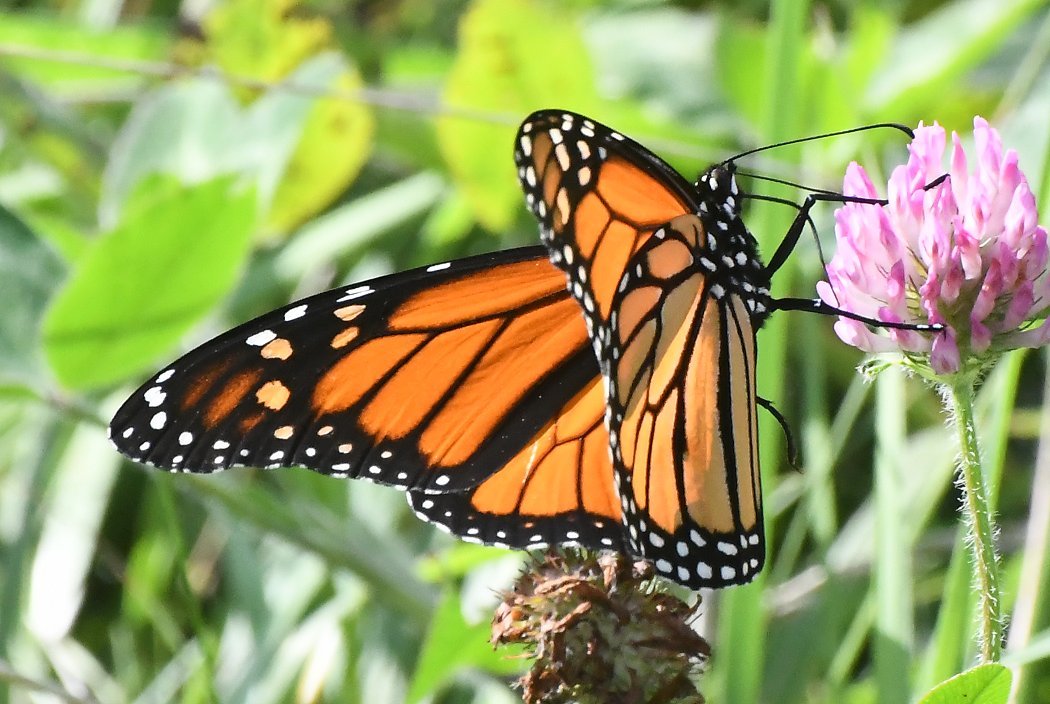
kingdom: Animalia
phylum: Arthropoda
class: Insecta
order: Lepidoptera
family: Nymphalidae
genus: Danaus
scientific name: Danaus plexippus
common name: Monarch
